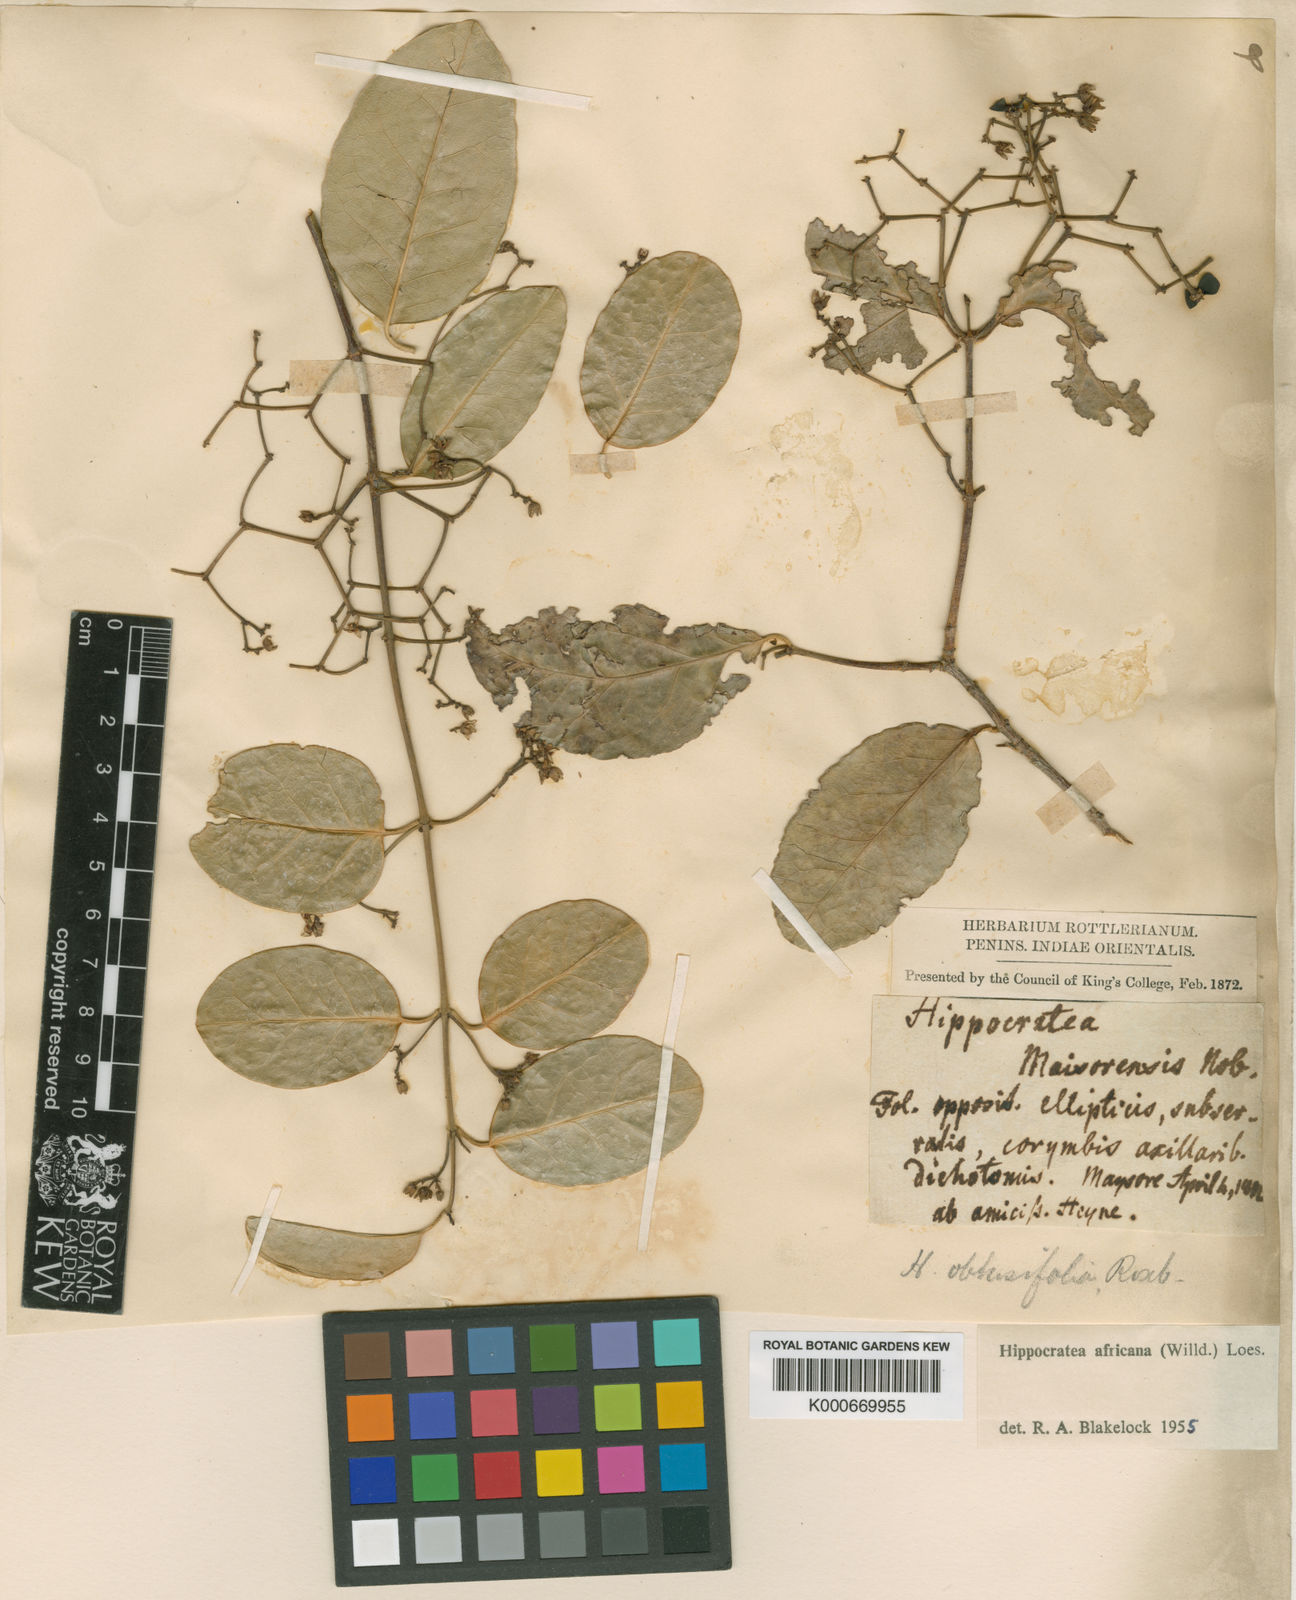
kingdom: Plantae
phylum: Tracheophyta
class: Magnoliopsida
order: Celastrales
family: Celastraceae
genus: Loeseneriella
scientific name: Loeseneriella
